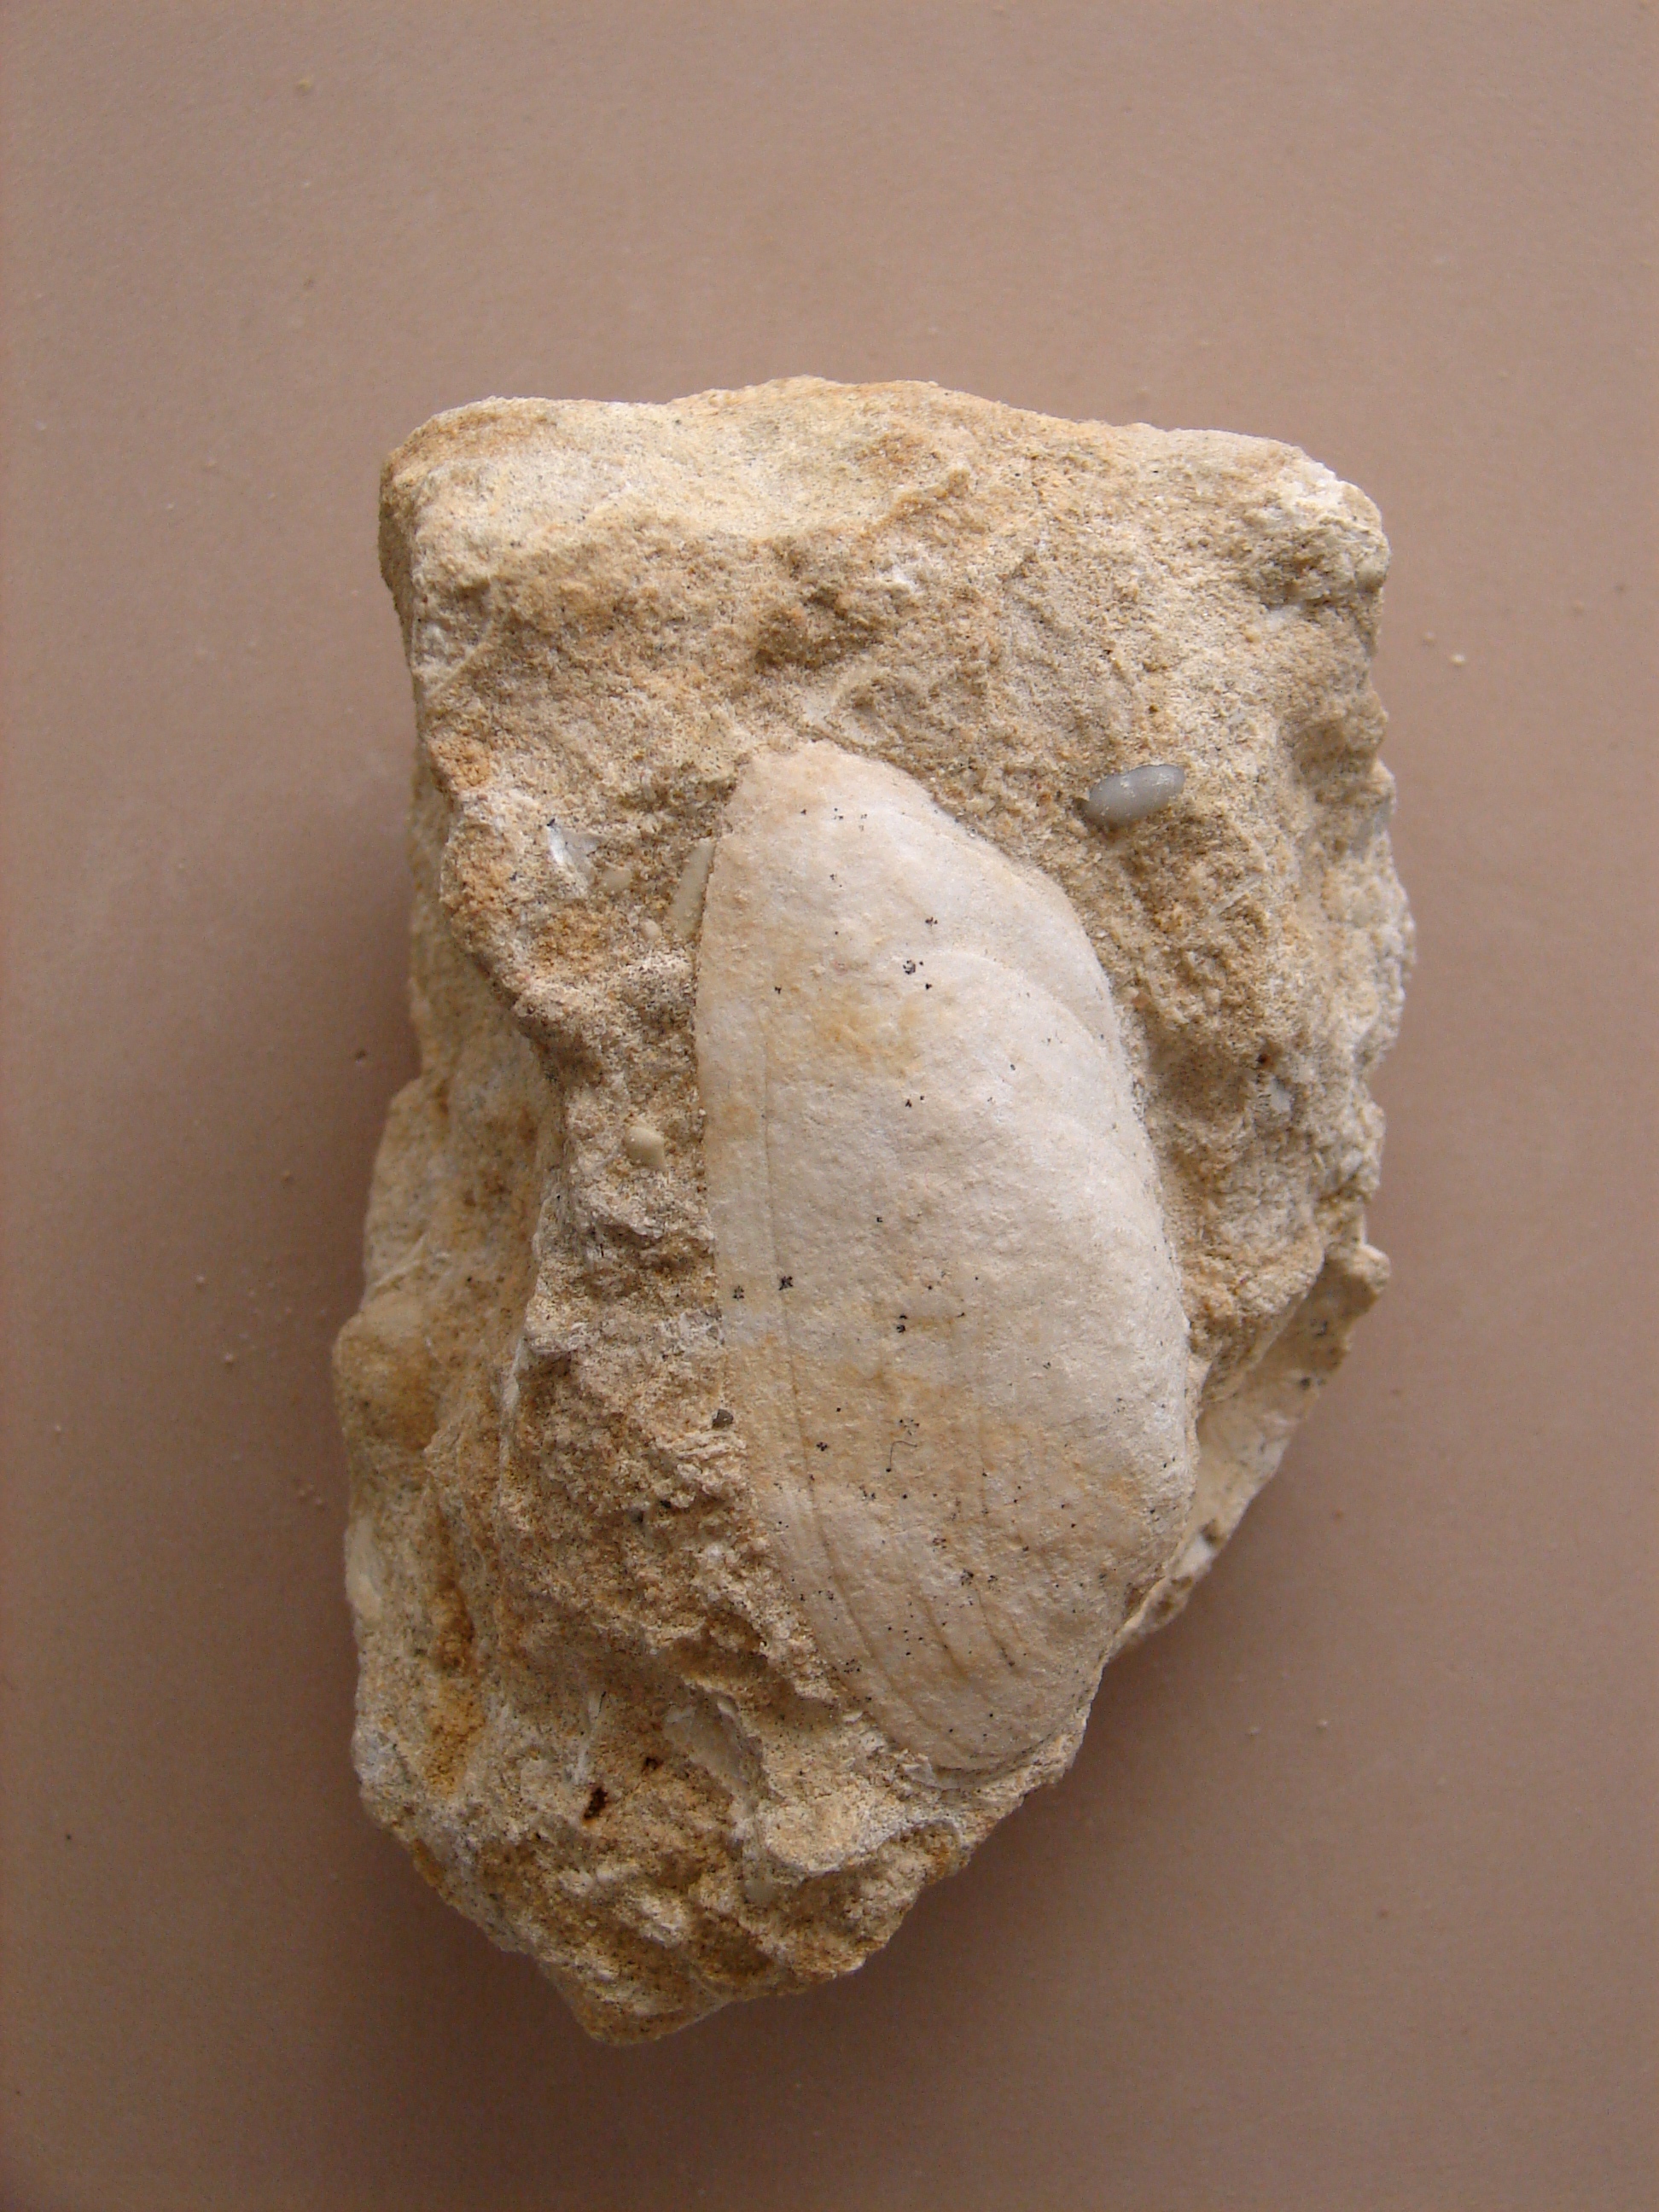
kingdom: Animalia
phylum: Mollusca
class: Bivalvia
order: Carditida
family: Cardiniidae
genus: Cardinia
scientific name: Cardinia
